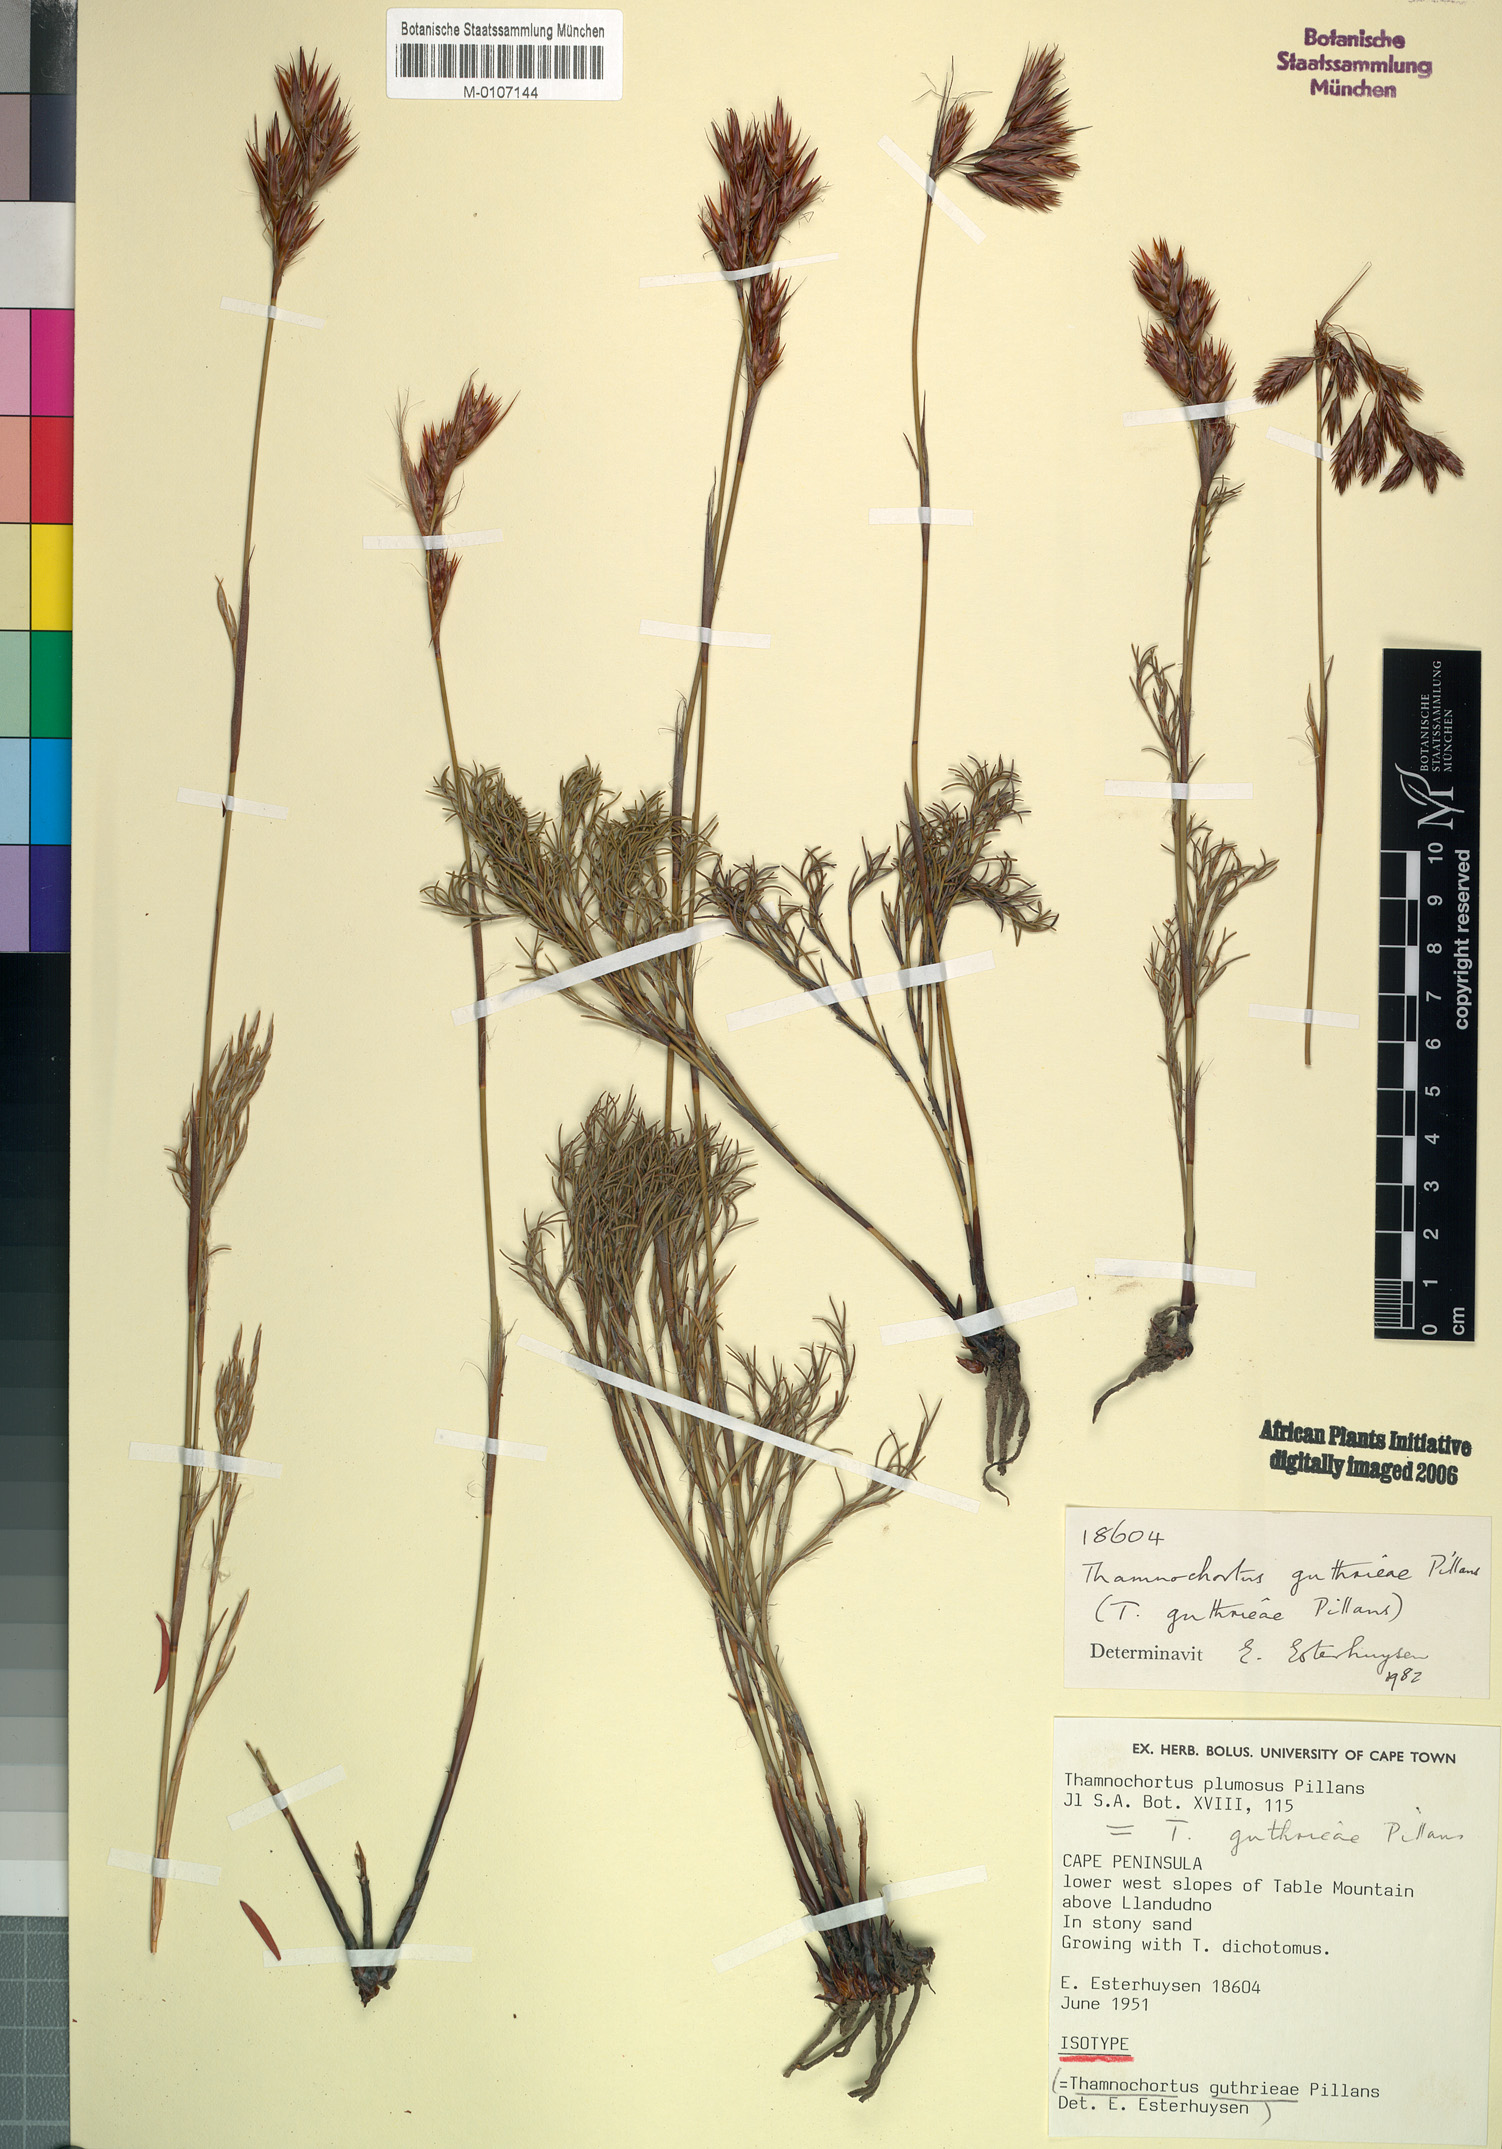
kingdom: Plantae
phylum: Tracheophyta
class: Liliopsida
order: Poales
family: Restionaceae
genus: Thamnochortus
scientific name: Thamnochortus guthrieae
